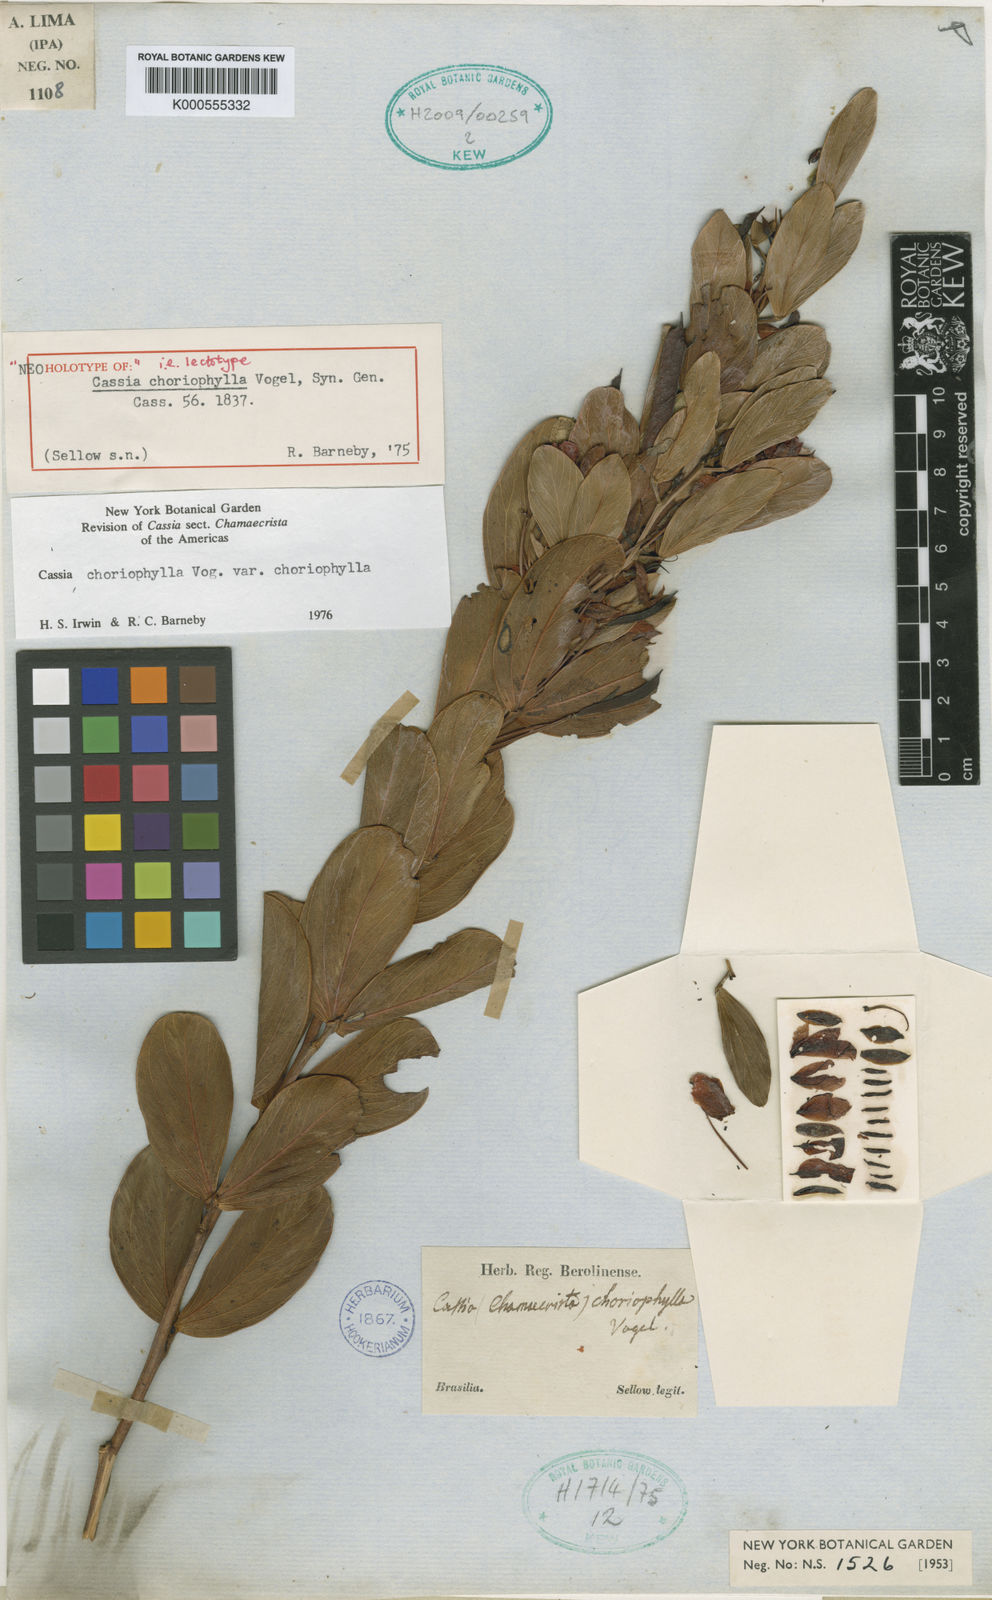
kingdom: Plantae
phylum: Tracheophyta
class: Magnoliopsida
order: Fabales
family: Fabaceae
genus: Chamaecrista
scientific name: Chamaecrista choriophylla
